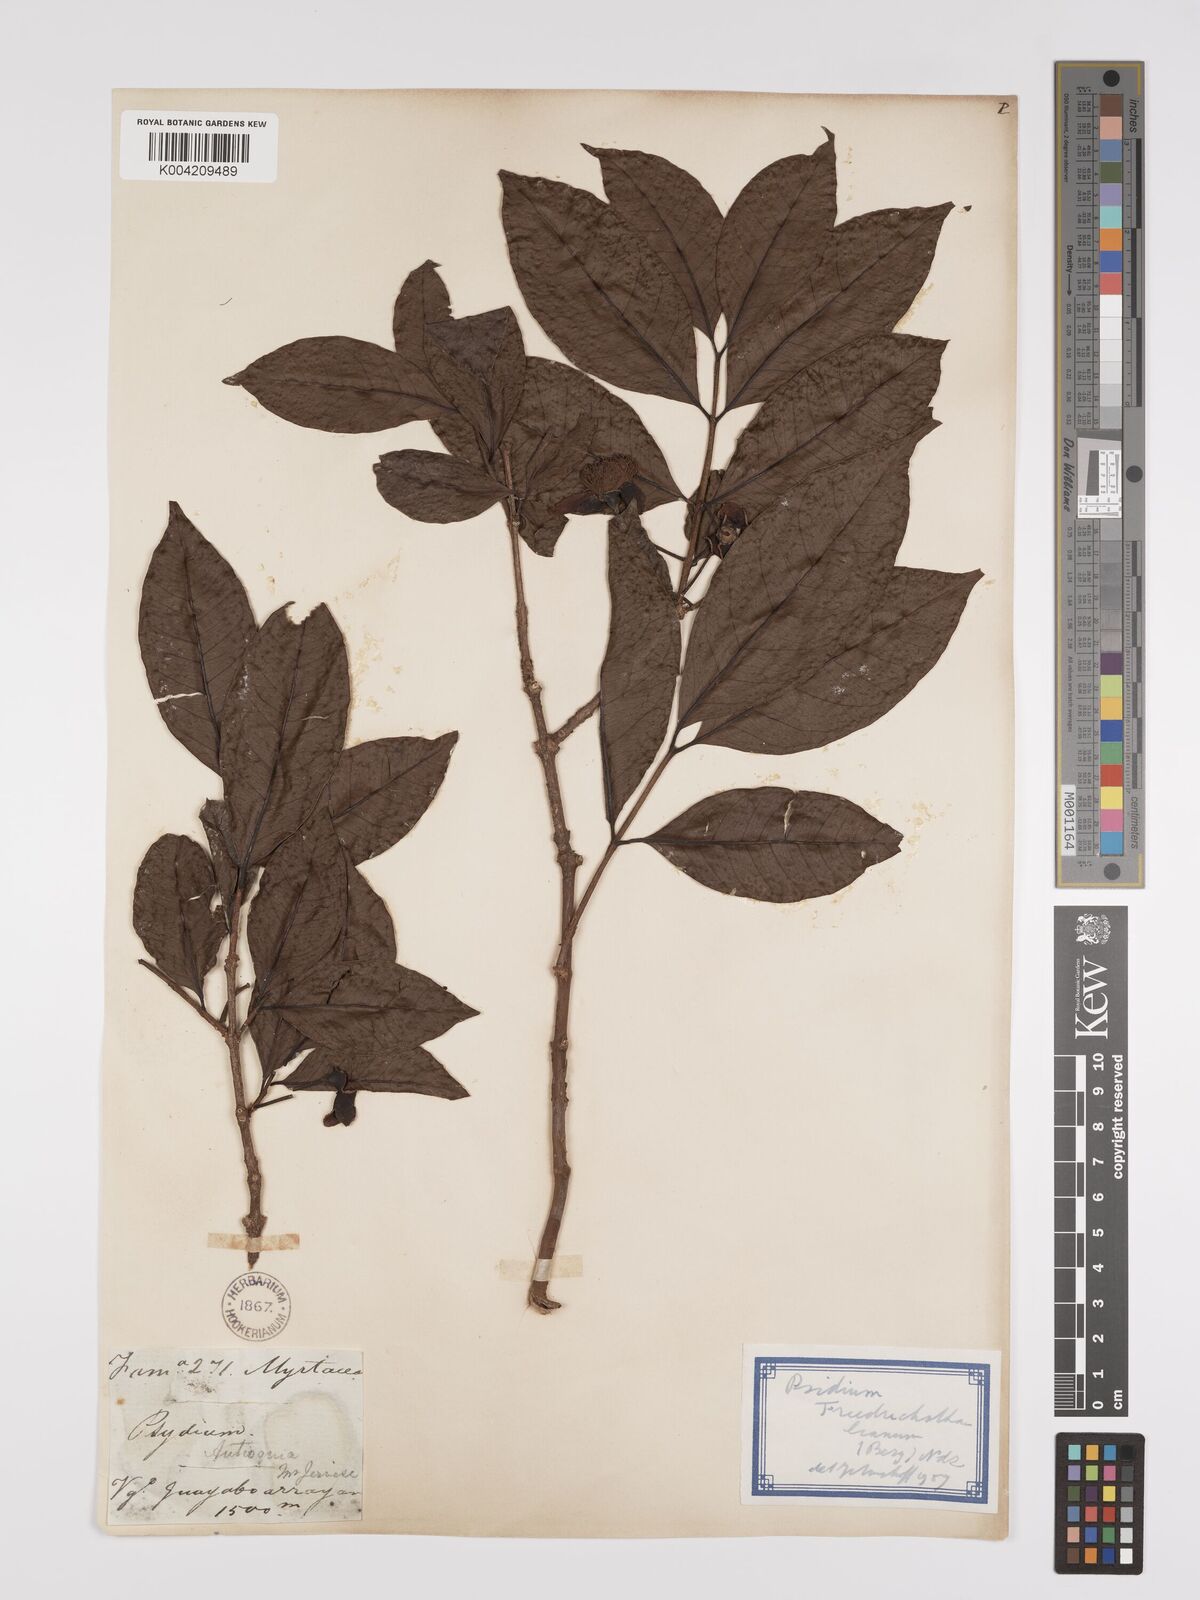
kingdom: Plantae
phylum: Tracheophyta
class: Magnoliopsida
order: Myrtales
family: Myrtaceae
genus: Psidium
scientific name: Psidium friedrichsthalianum
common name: Costa rican guava
